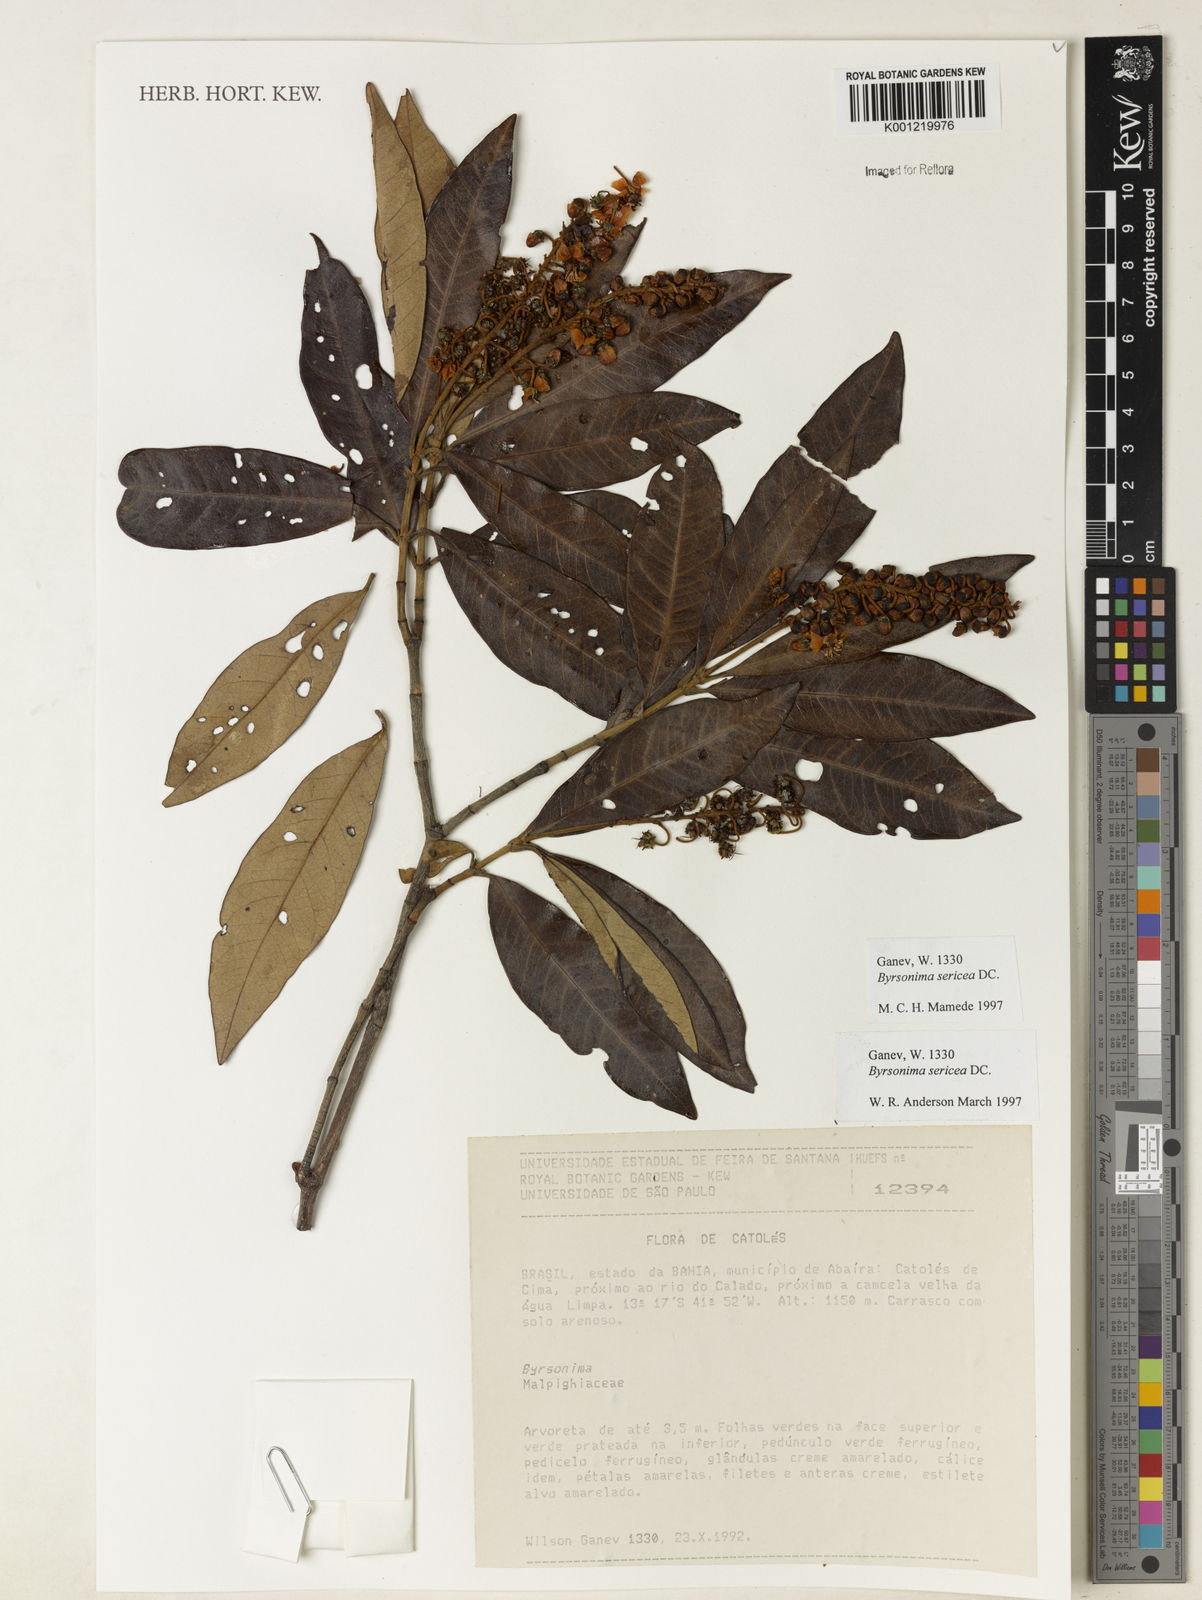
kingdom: Plantae
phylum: Tracheophyta
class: Magnoliopsida
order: Malpighiales
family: Malpighiaceae
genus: Byrsonima
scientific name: Byrsonima sericea
